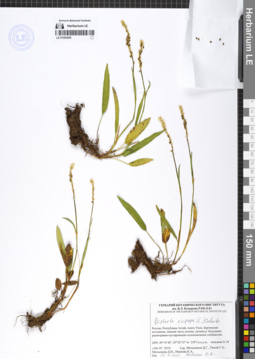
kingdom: Plantae
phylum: Tracheophyta
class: Magnoliopsida
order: Caryophyllales
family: Polygonaceae
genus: Bistorta
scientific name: Bistorta vivipara
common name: Alpine bistort
